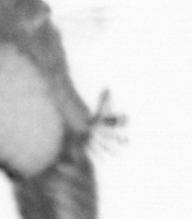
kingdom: Animalia
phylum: Annelida
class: Polychaeta
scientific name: Polychaeta
